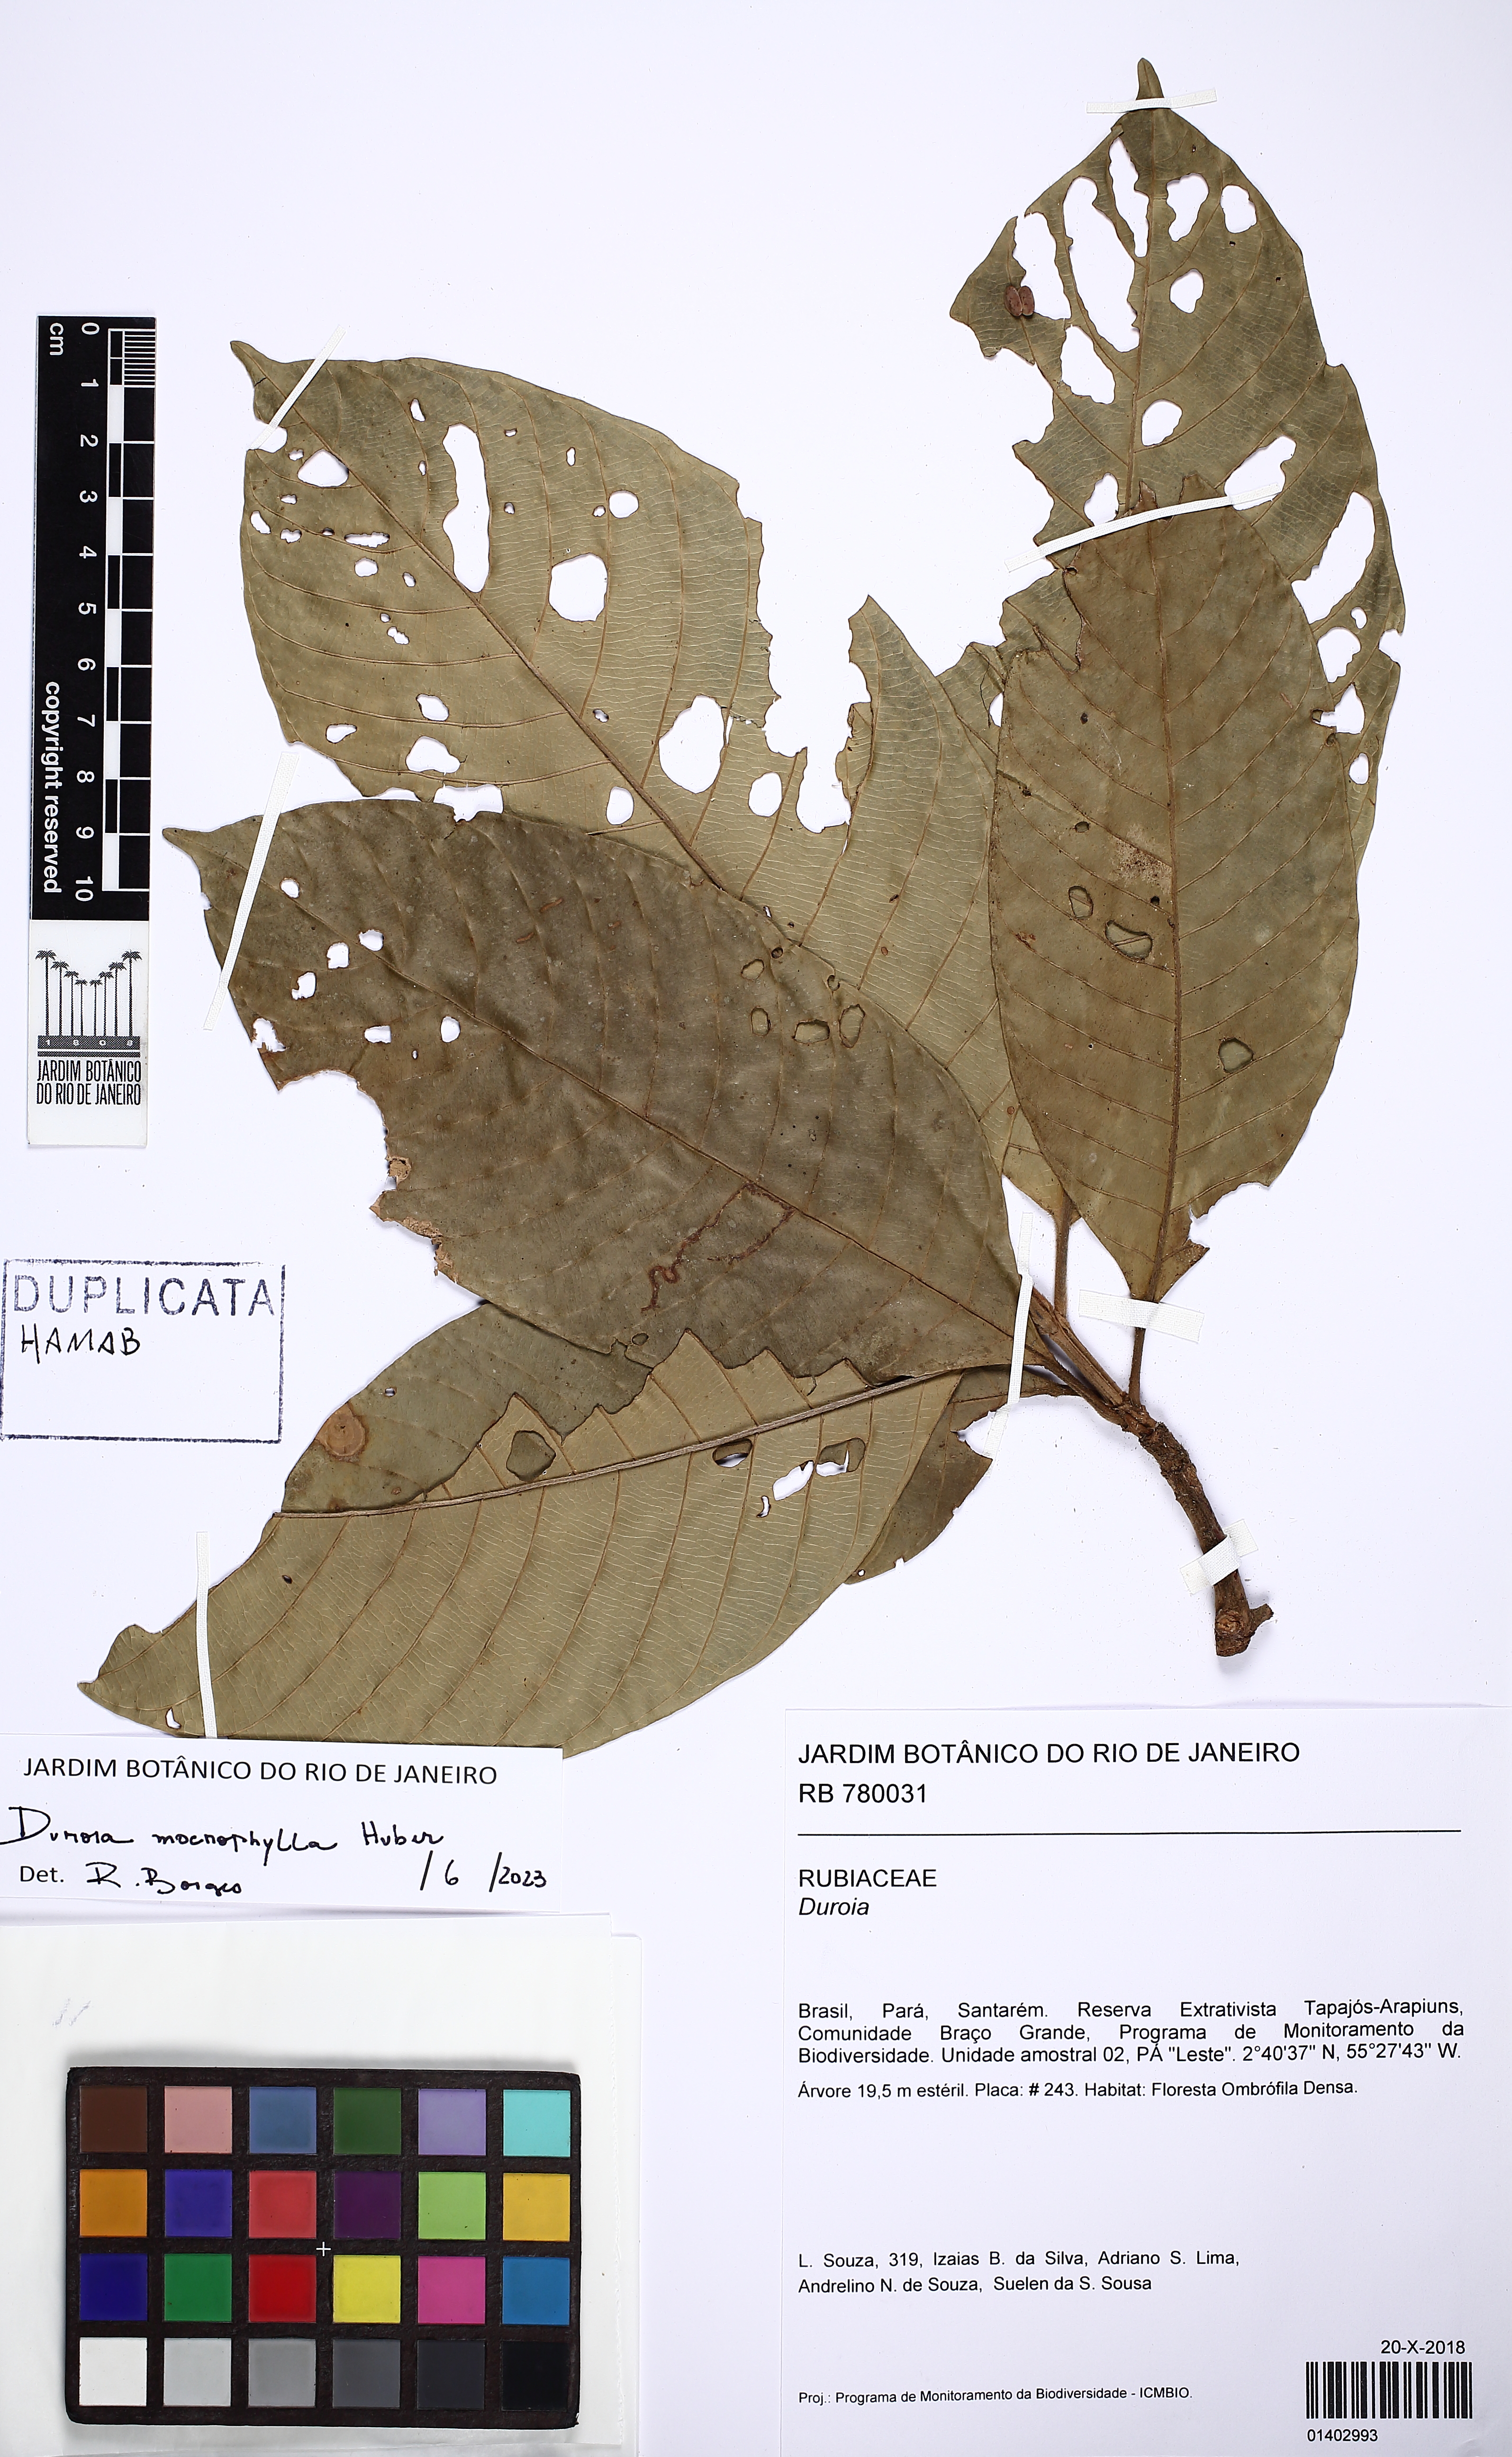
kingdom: Plantae
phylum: Tracheophyta
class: Magnoliopsida
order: Gentianales
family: Rubiaceae
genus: Duroia
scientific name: Duroia macrophylla
